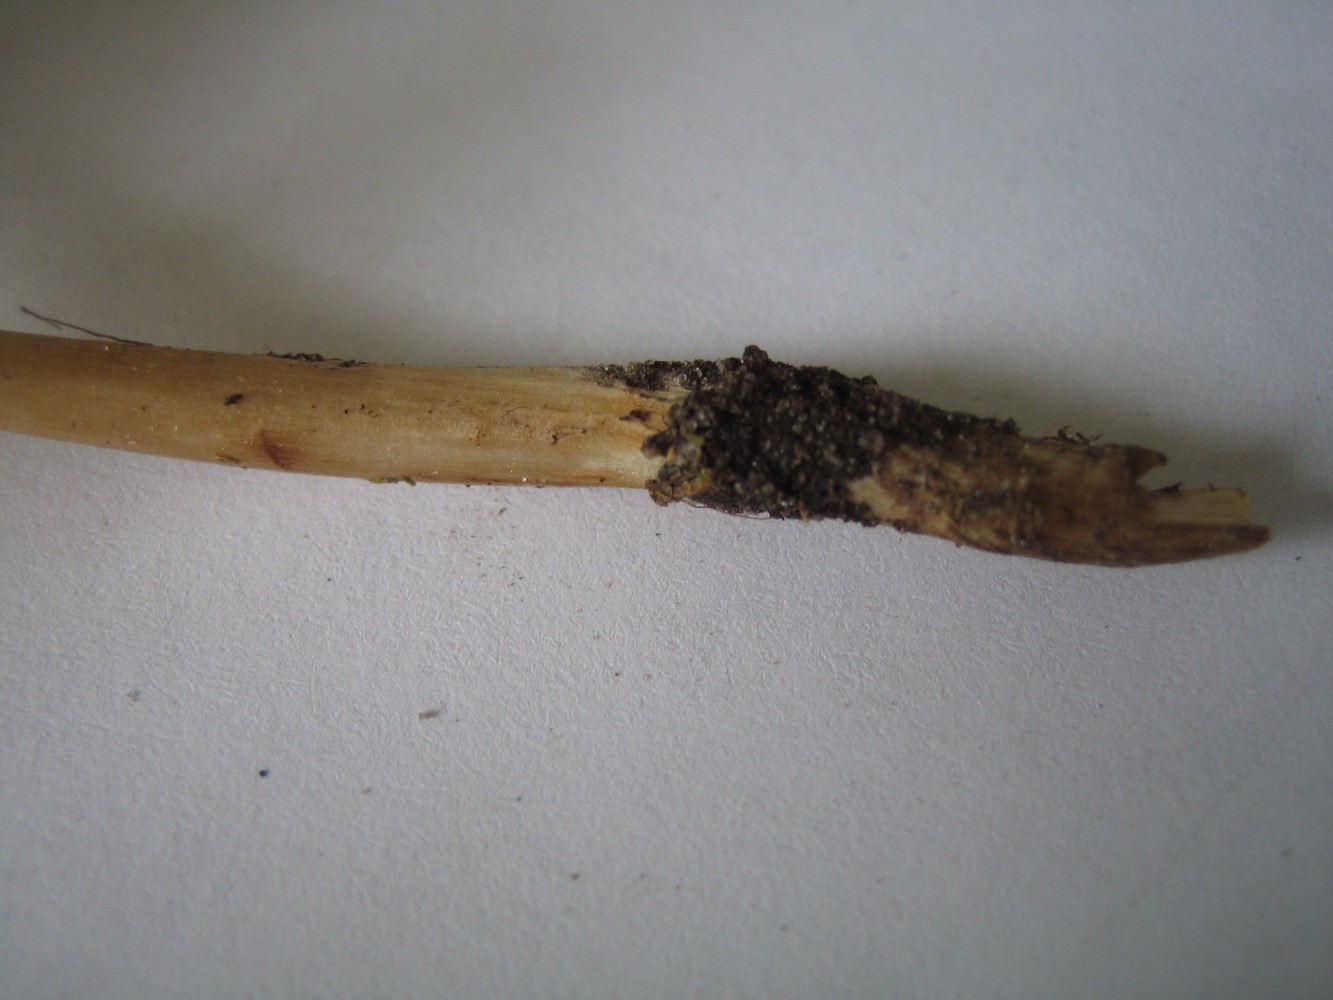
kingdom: Fungi
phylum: Basidiomycota
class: Agaricomycetes
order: Agaricales
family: Physalacriaceae
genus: Hymenopellis
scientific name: Hymenopellis radicata
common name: almindelig pælerodshat
